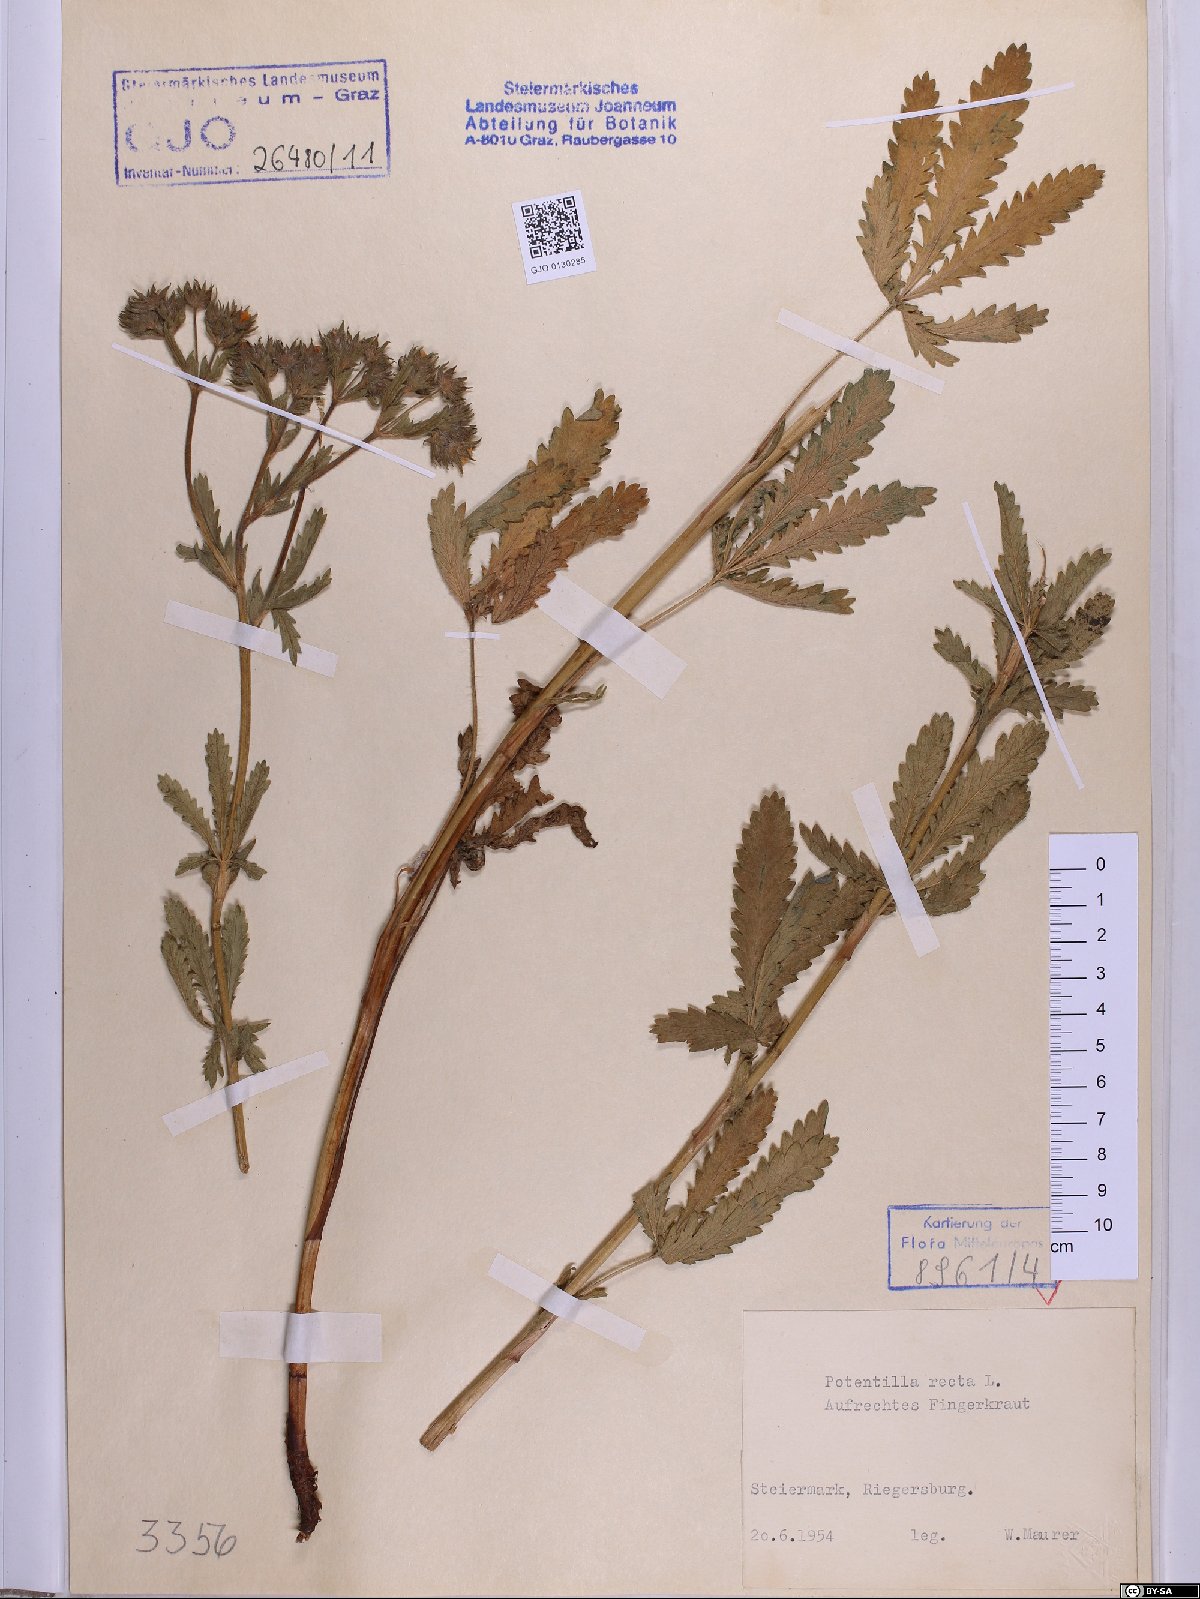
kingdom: Plantae
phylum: Tracheophyta
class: Magnoliopsida
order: Rosales
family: Rosaceae
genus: Potentilla
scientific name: Potentilla recta
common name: Sulphur cinquefoil
